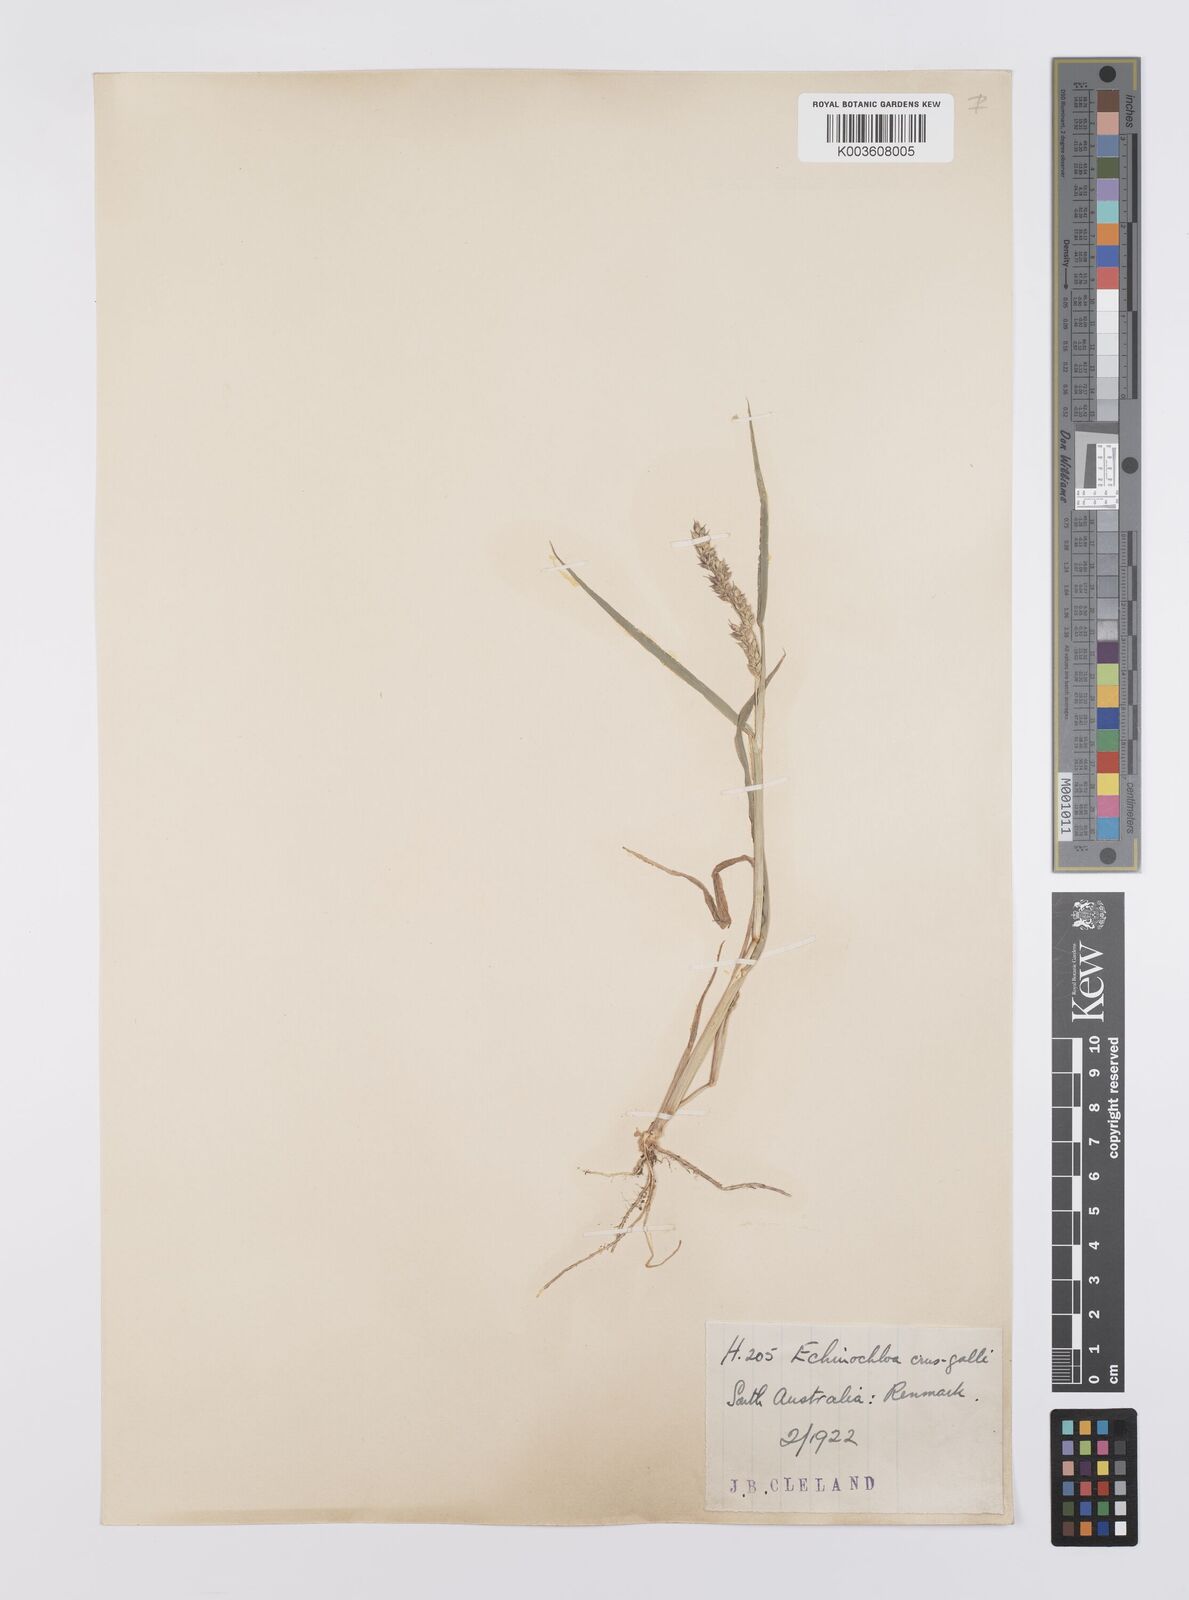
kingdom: Plantae
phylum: Tracheophyta
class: Liliopsida
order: Poales
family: Poaceae
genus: Echinochloa
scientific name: Echinochloa crus-galli
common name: Cockspur
